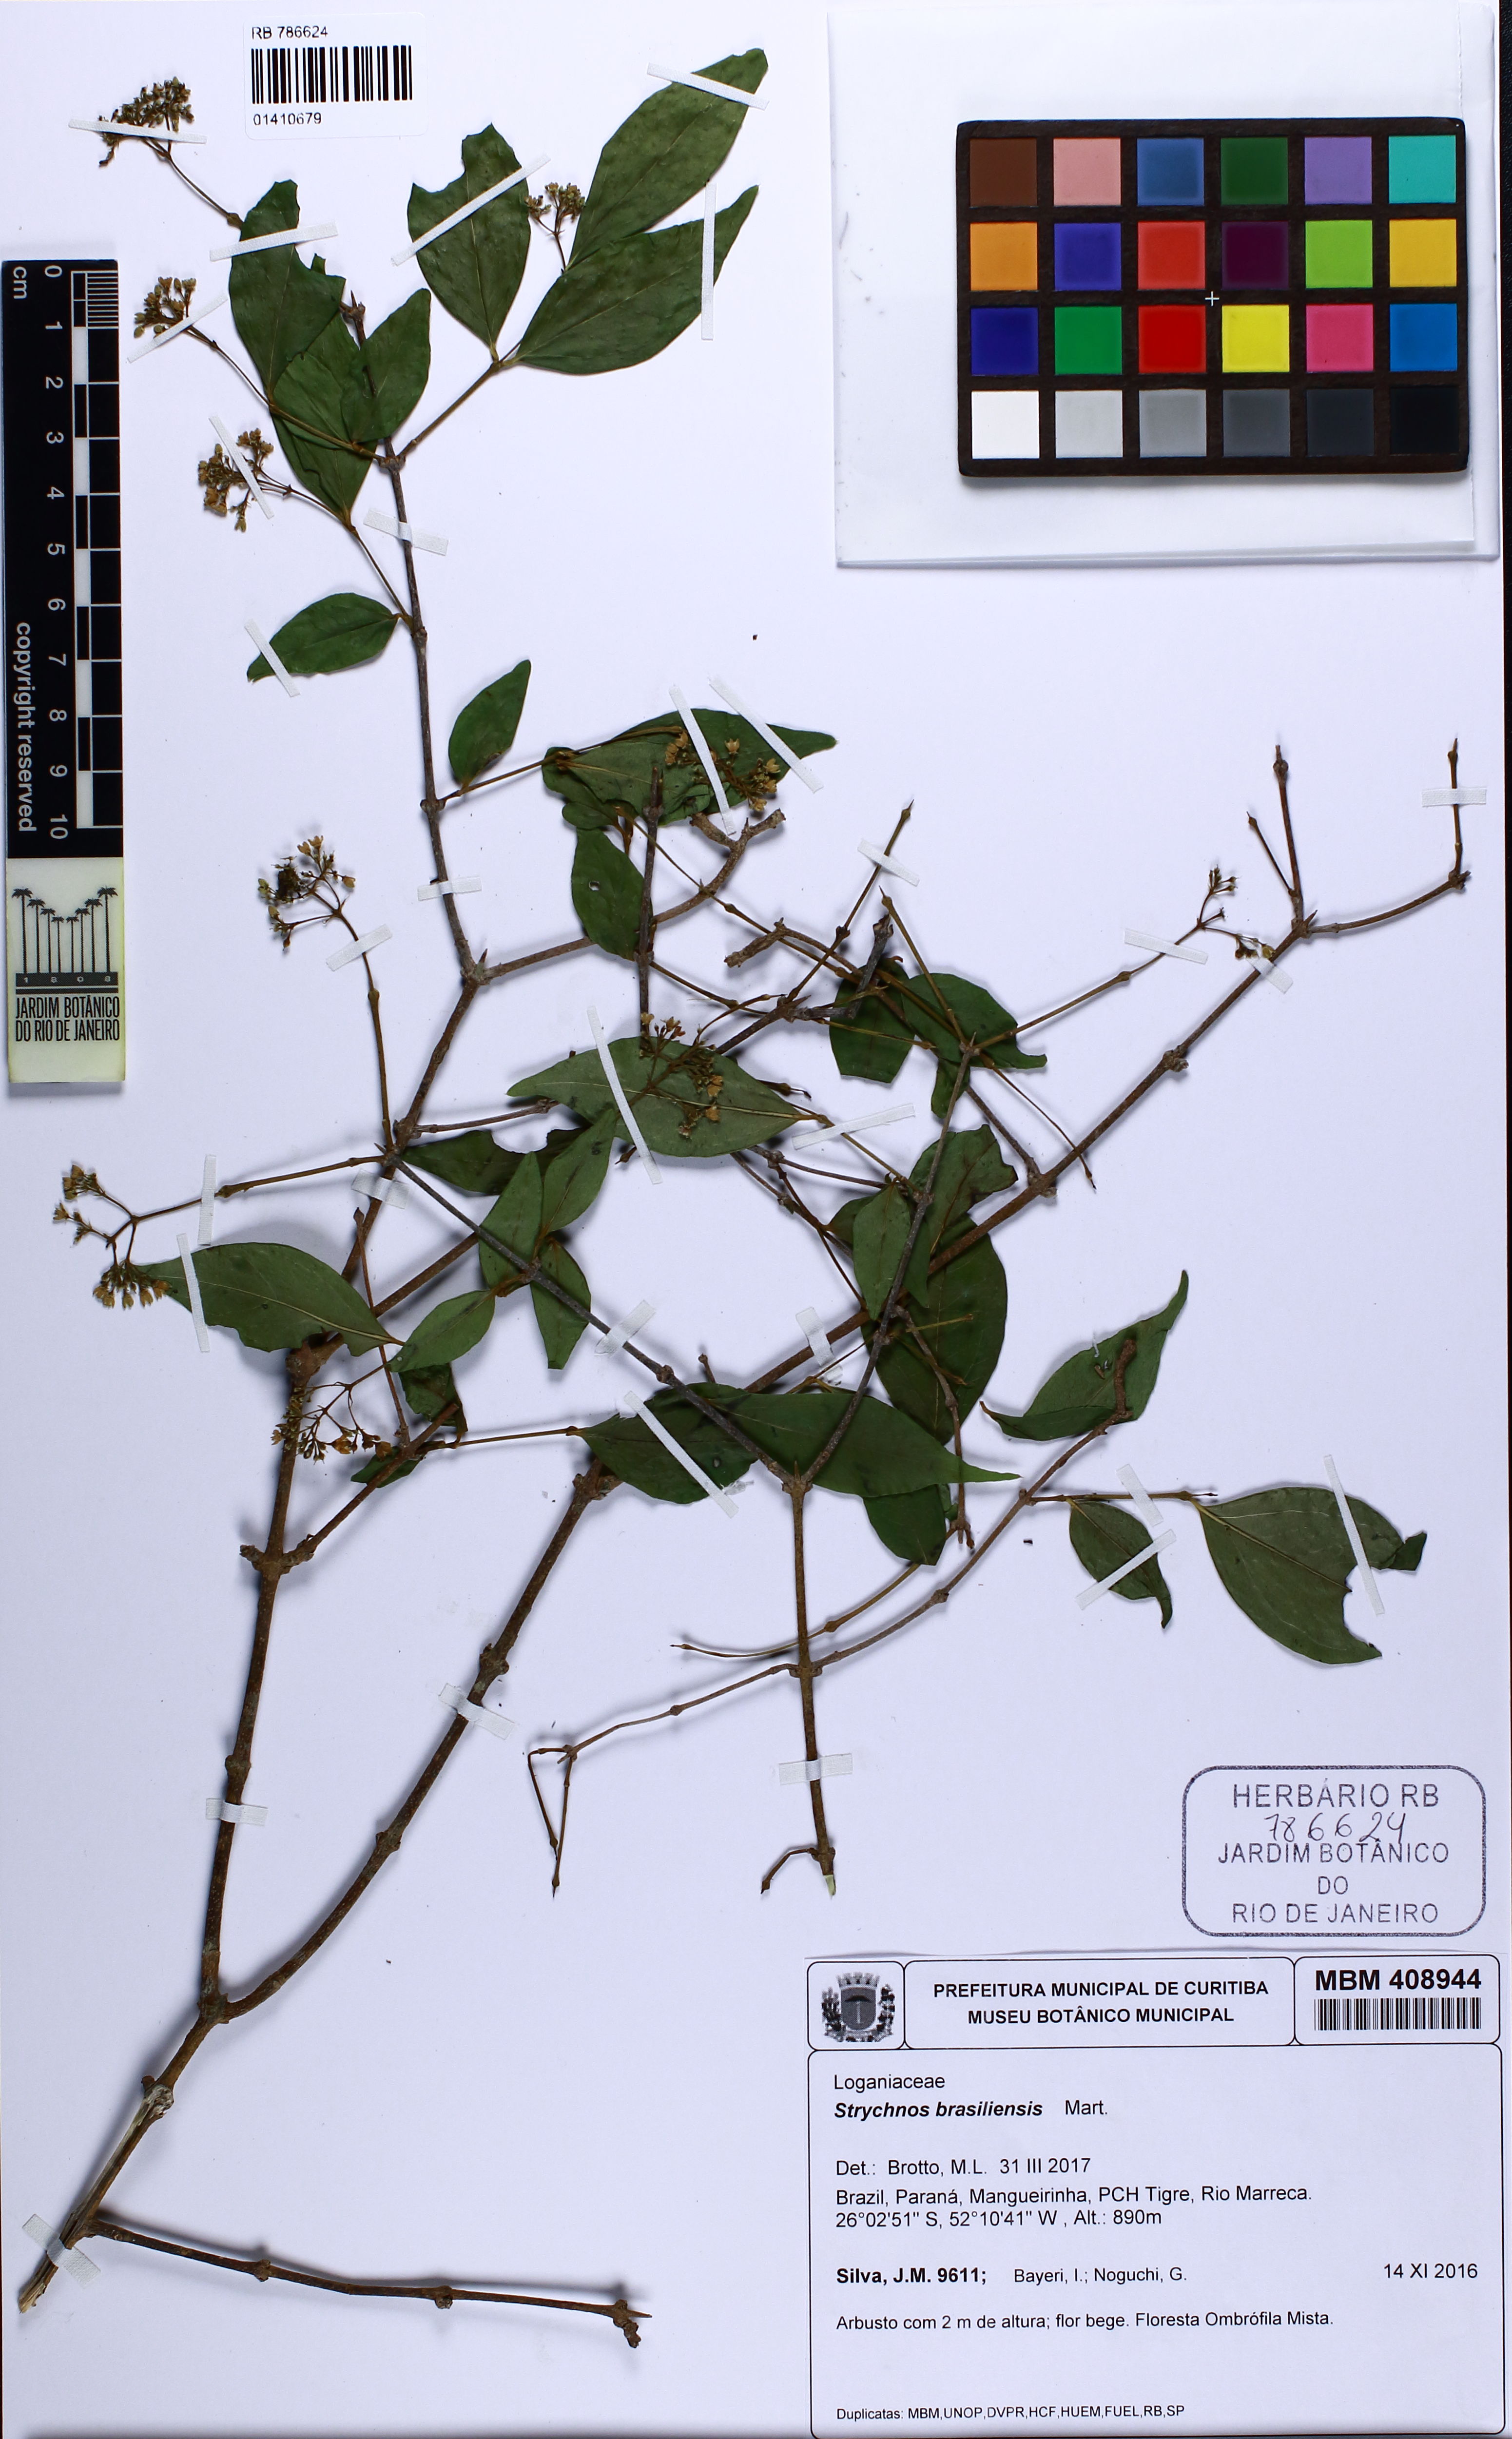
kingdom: Plantae
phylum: Tracheophyta
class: Magnoliopsida
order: Gentianales
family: Loganiaceae
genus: Strychnos
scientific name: Strychnos brasiliensis
